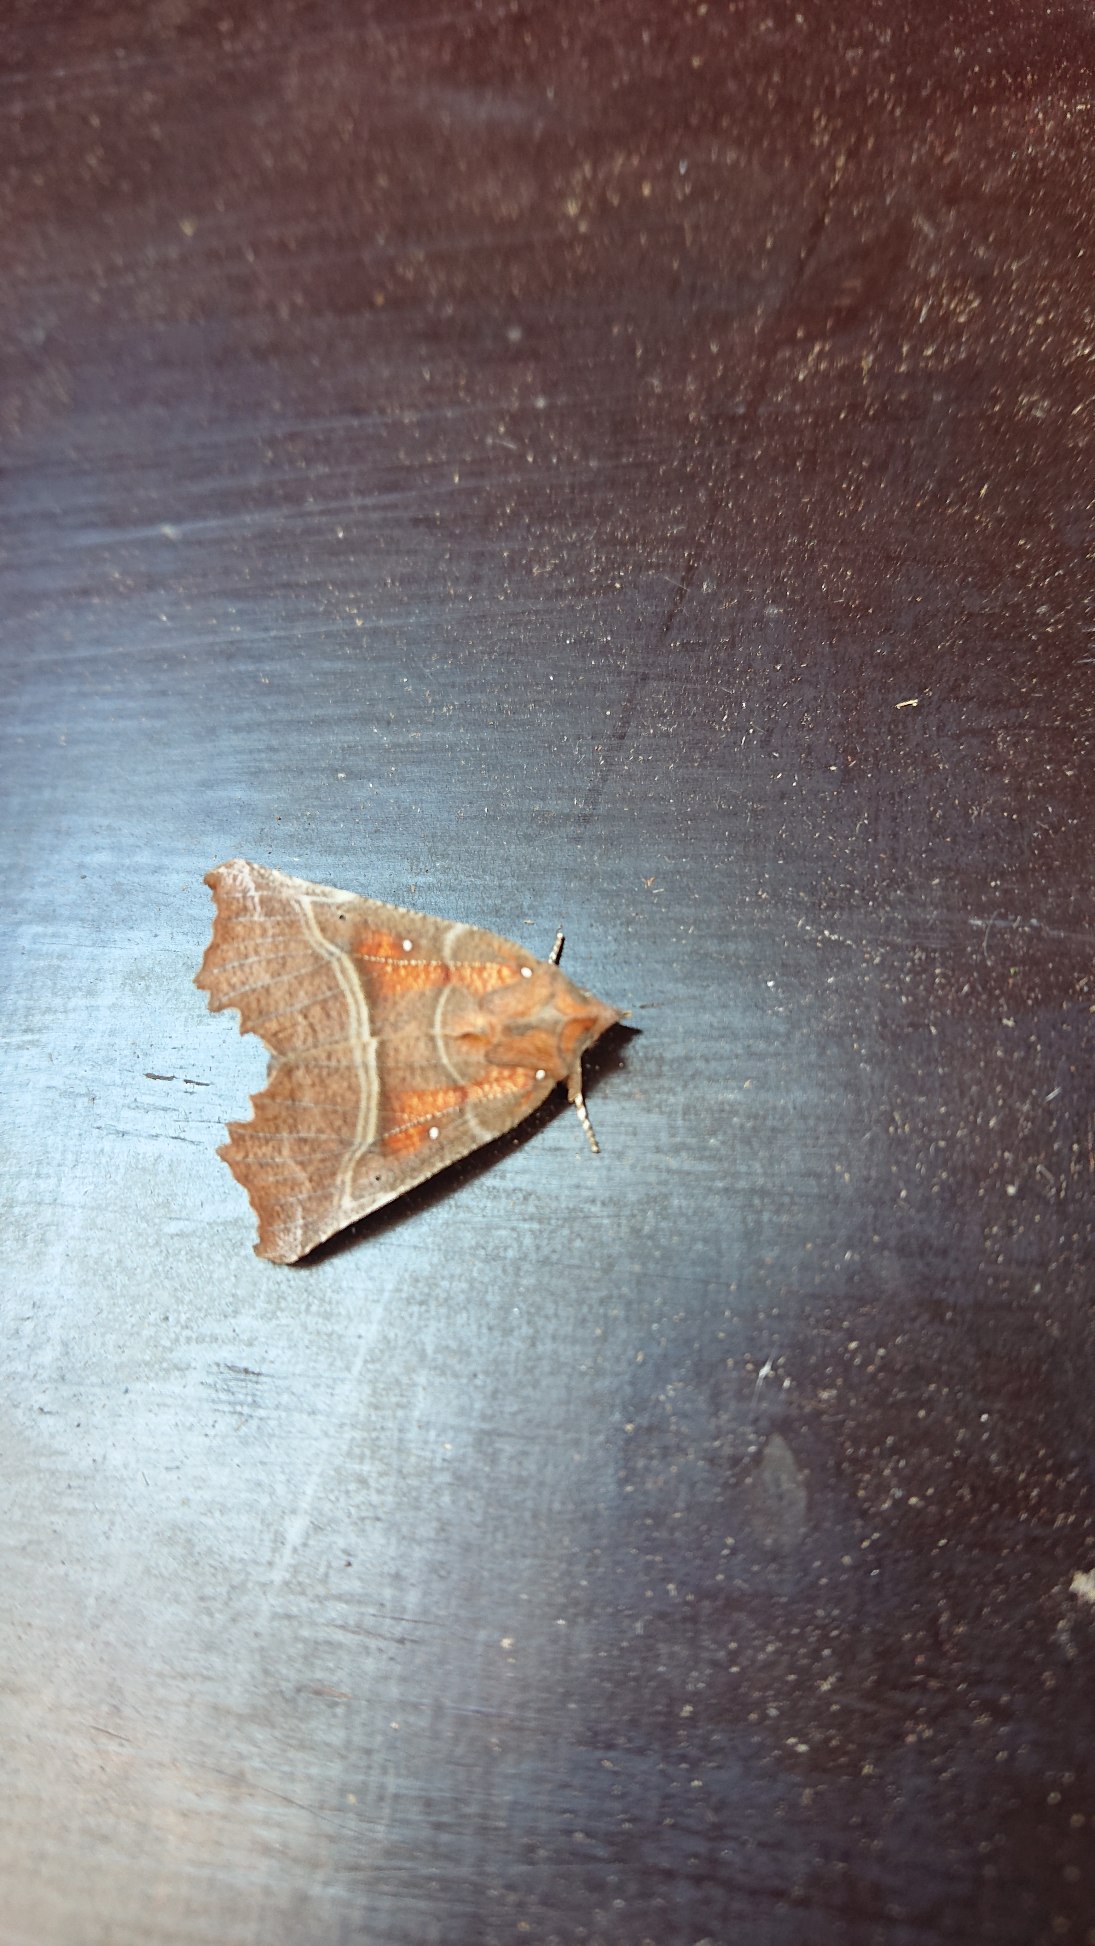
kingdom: Animalia
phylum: Arthropoda
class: Insecta
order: Lepidoptera
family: Erebidae
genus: Scoliopteryx
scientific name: Scoliopteryx libatrix
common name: Husmoderugle
